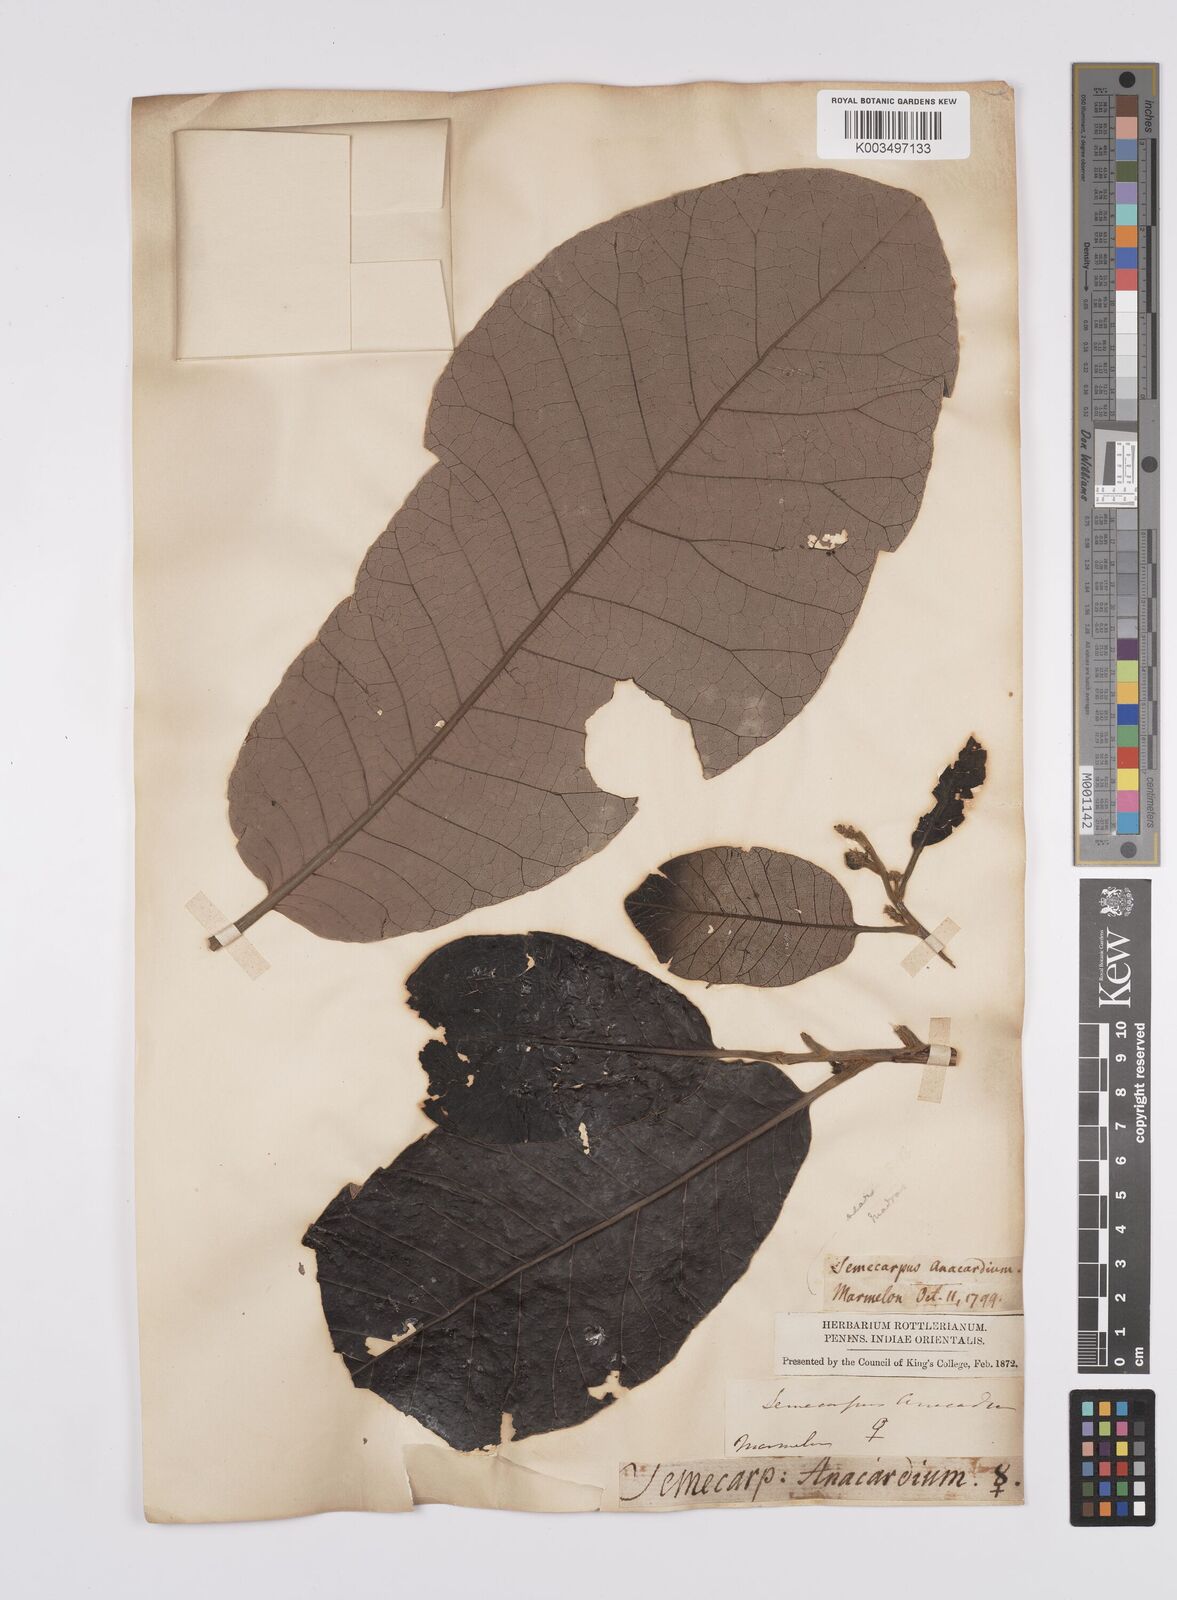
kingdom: Plantae
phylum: Tracheophyta
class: Magnoliopsida
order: Sapindales
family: Anacardiaceae
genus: Semecarpus
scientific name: Semecarpus anacardium
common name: Marking nut-tree
